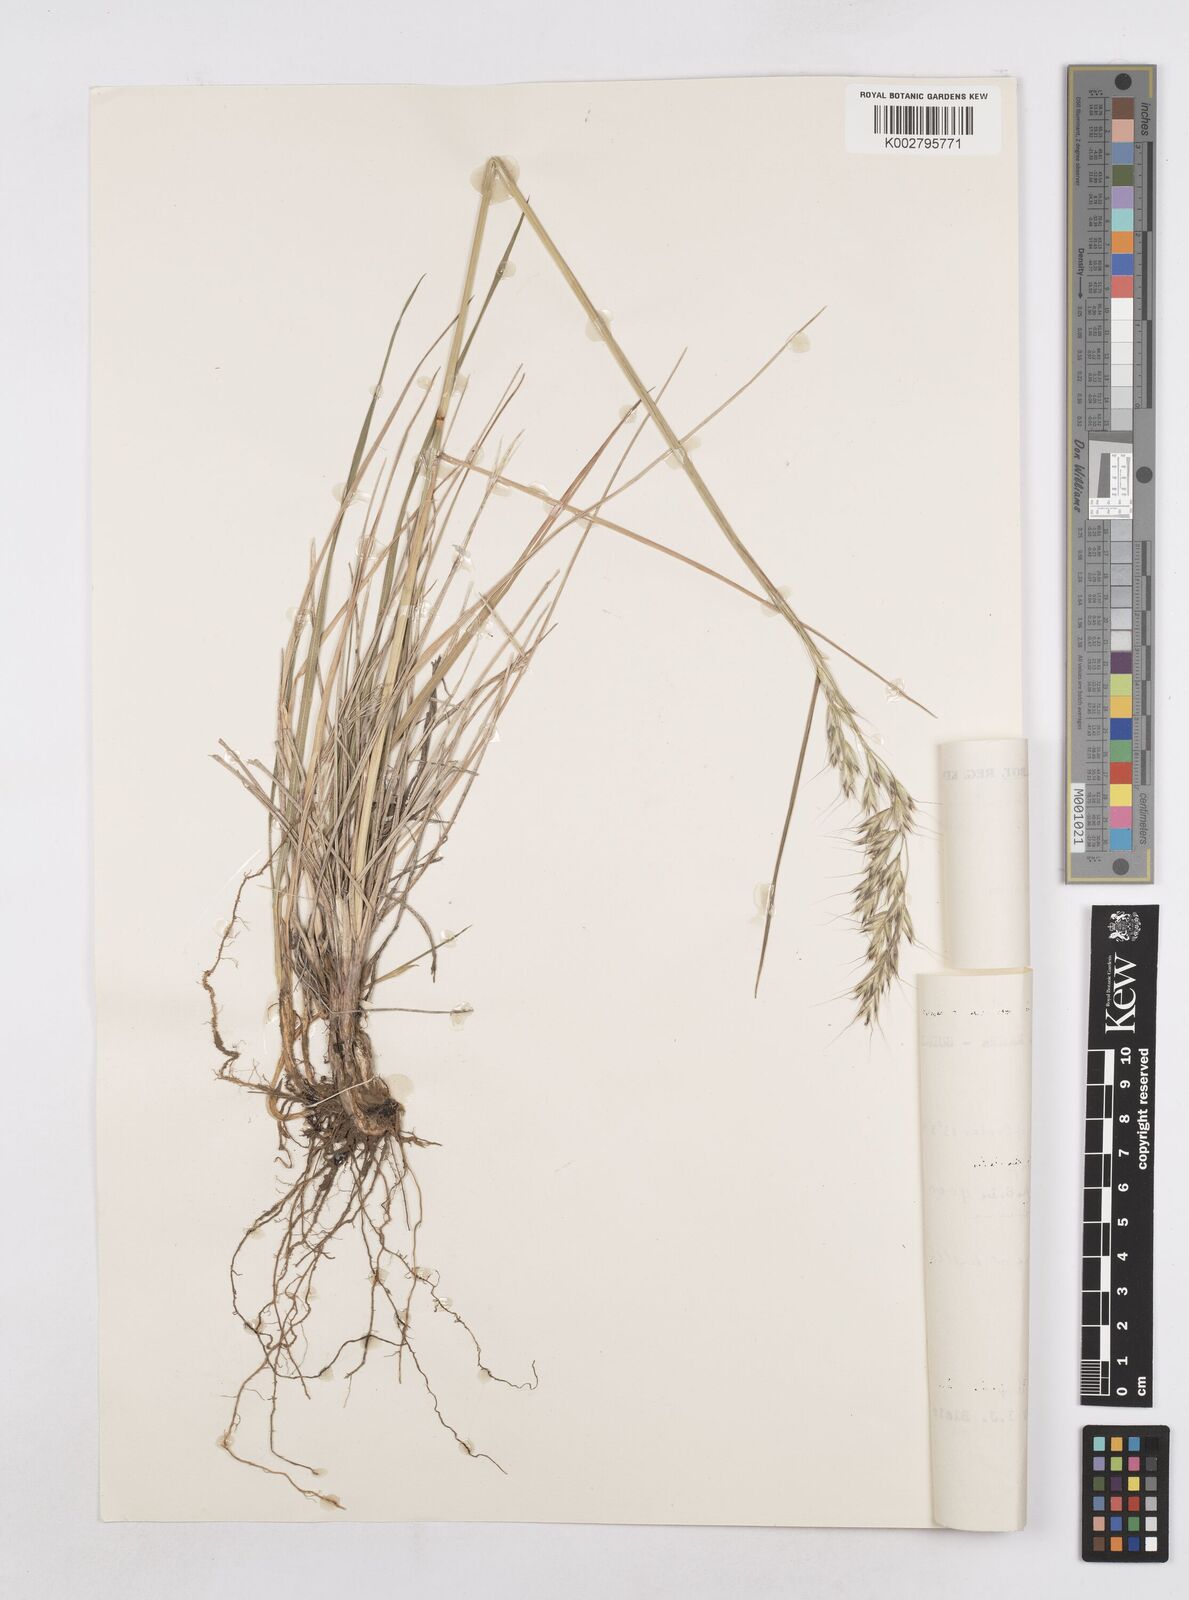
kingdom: Plantae
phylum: Tracheophyta
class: Liliopsida
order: Poales
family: Poaceae
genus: Trisetopsis
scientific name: Trisetopsis elongata
